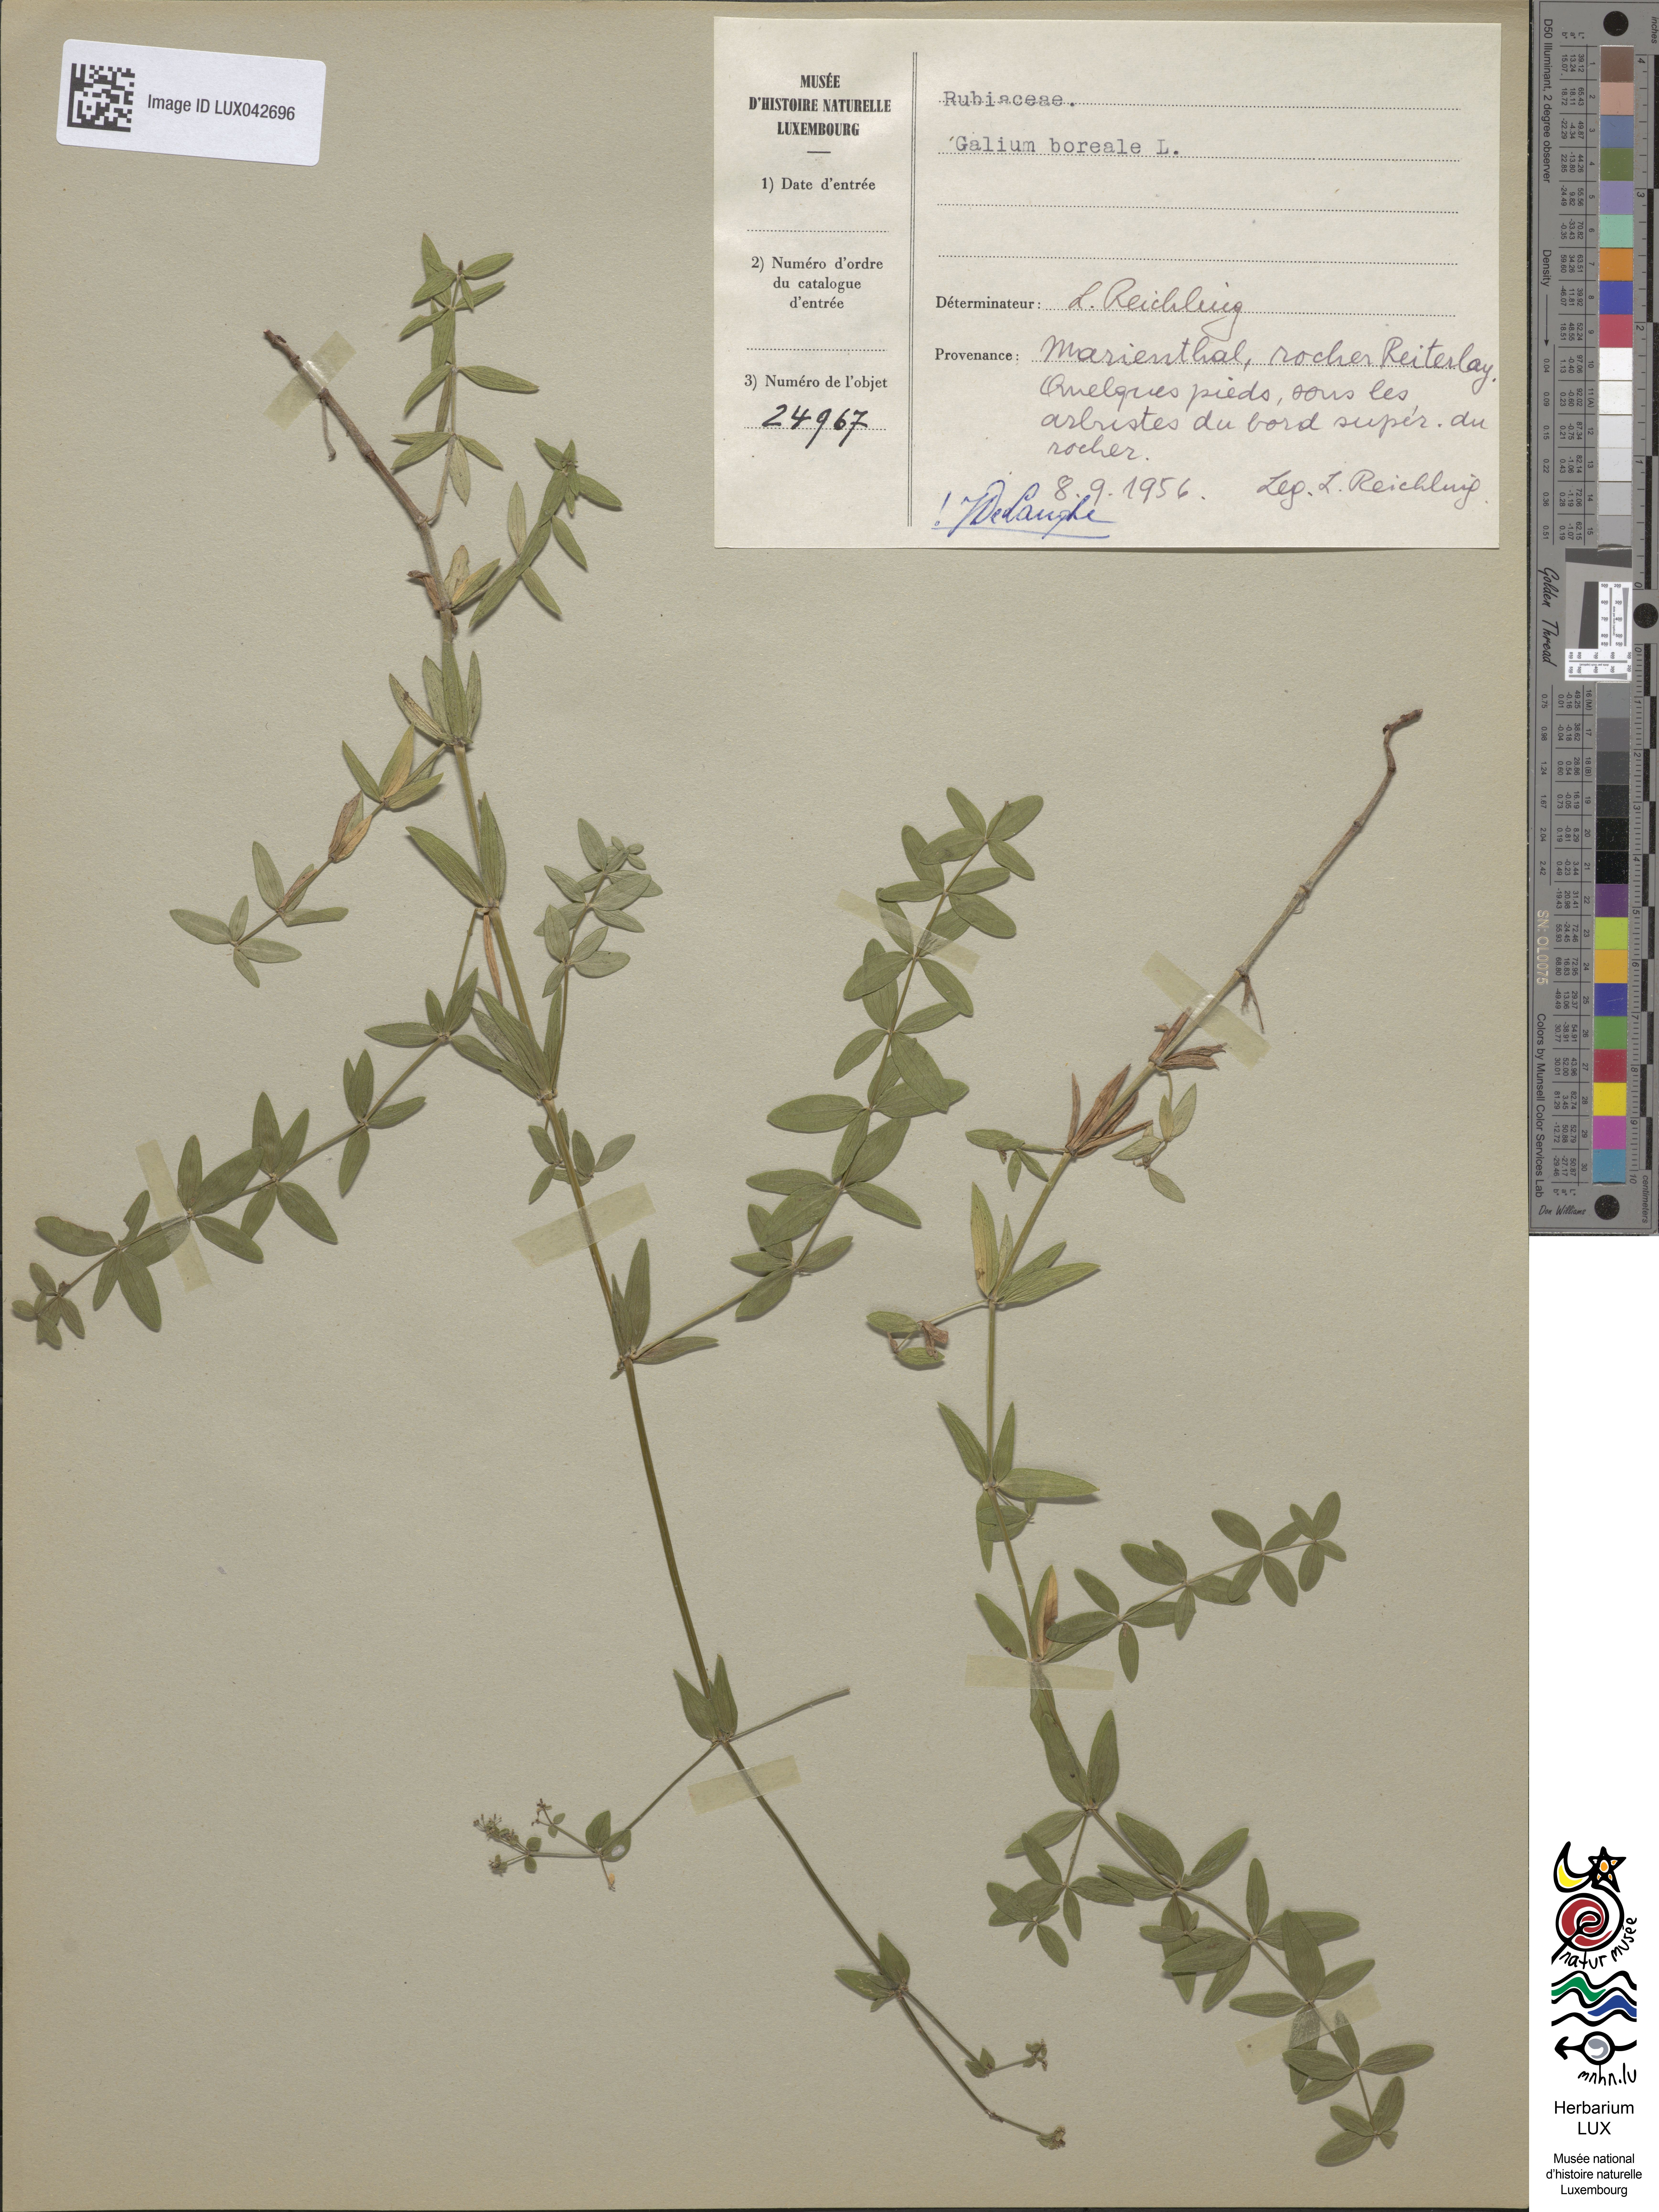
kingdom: Plantae
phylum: Tracheophyta
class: Magnoliopsida
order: Gentianales
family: Rubiaceae
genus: Galium
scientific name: Galium boreale
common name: Northern bedstraw
